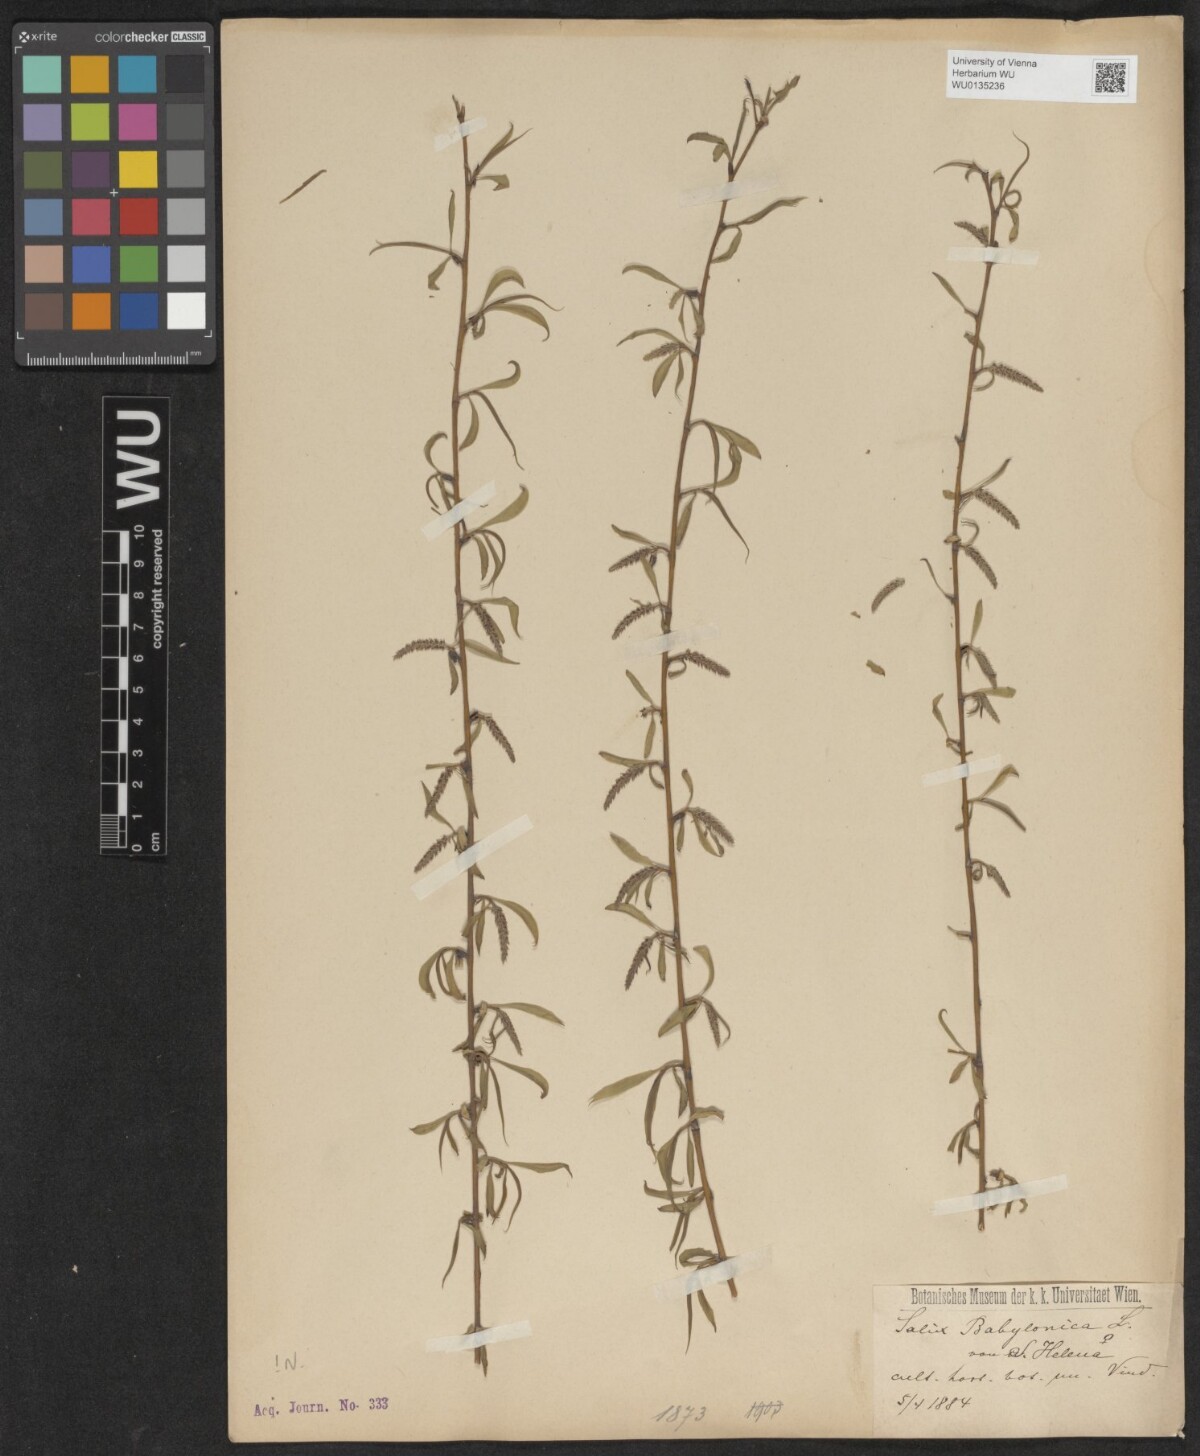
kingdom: Plantae
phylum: Tracheophyta
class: Magnoliopsida
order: Malpighiales
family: Salicaceae
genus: Salix
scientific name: Salix babylonica
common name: Weeping willow
